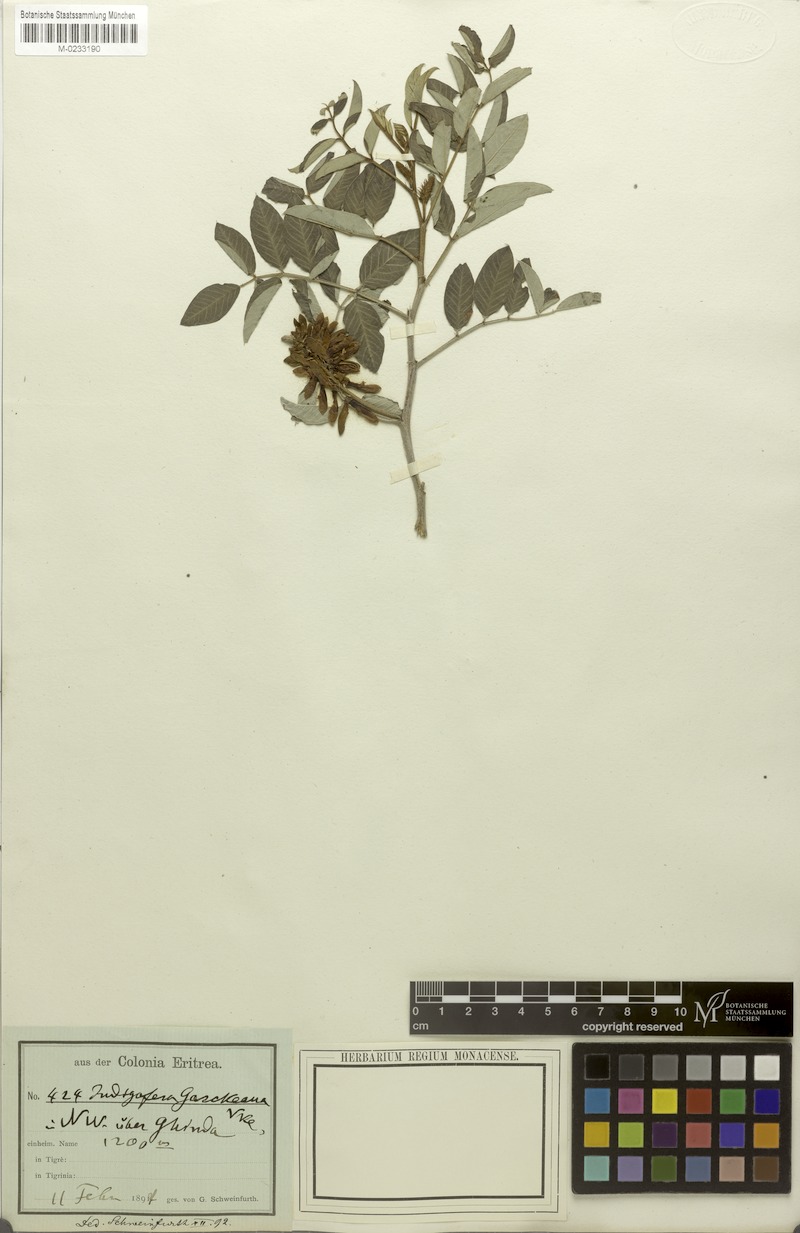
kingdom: Plantae
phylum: Tracheophyta
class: Magnoliopsida
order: Fabales
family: Fabaceae
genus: Indigofera
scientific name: Indigofera garckeana
